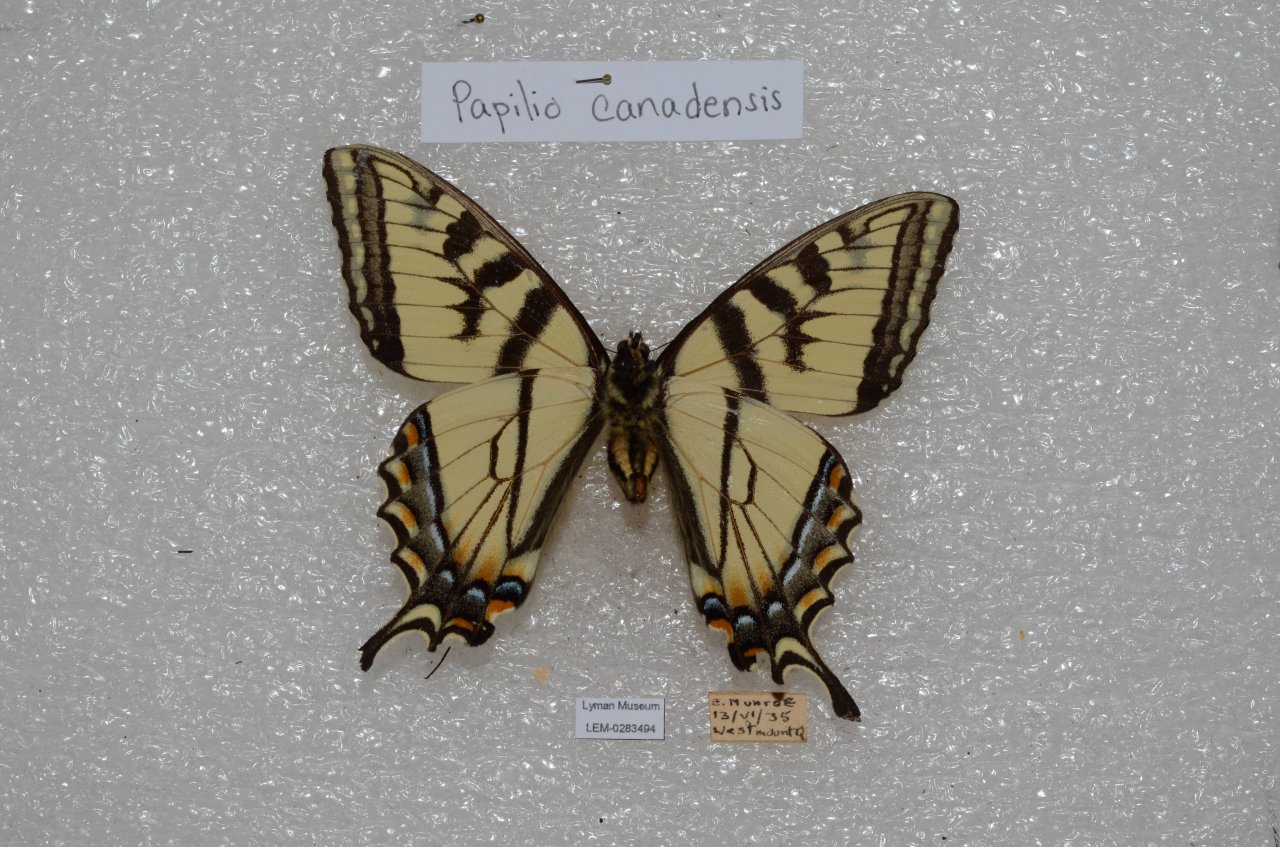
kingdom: Animalia
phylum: Arthropoda
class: Insecta
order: Lepidoptera
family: Papilionidae
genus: Pterourus
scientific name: Pterourus canadensis
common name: Canadian Tiger Swallowtail
